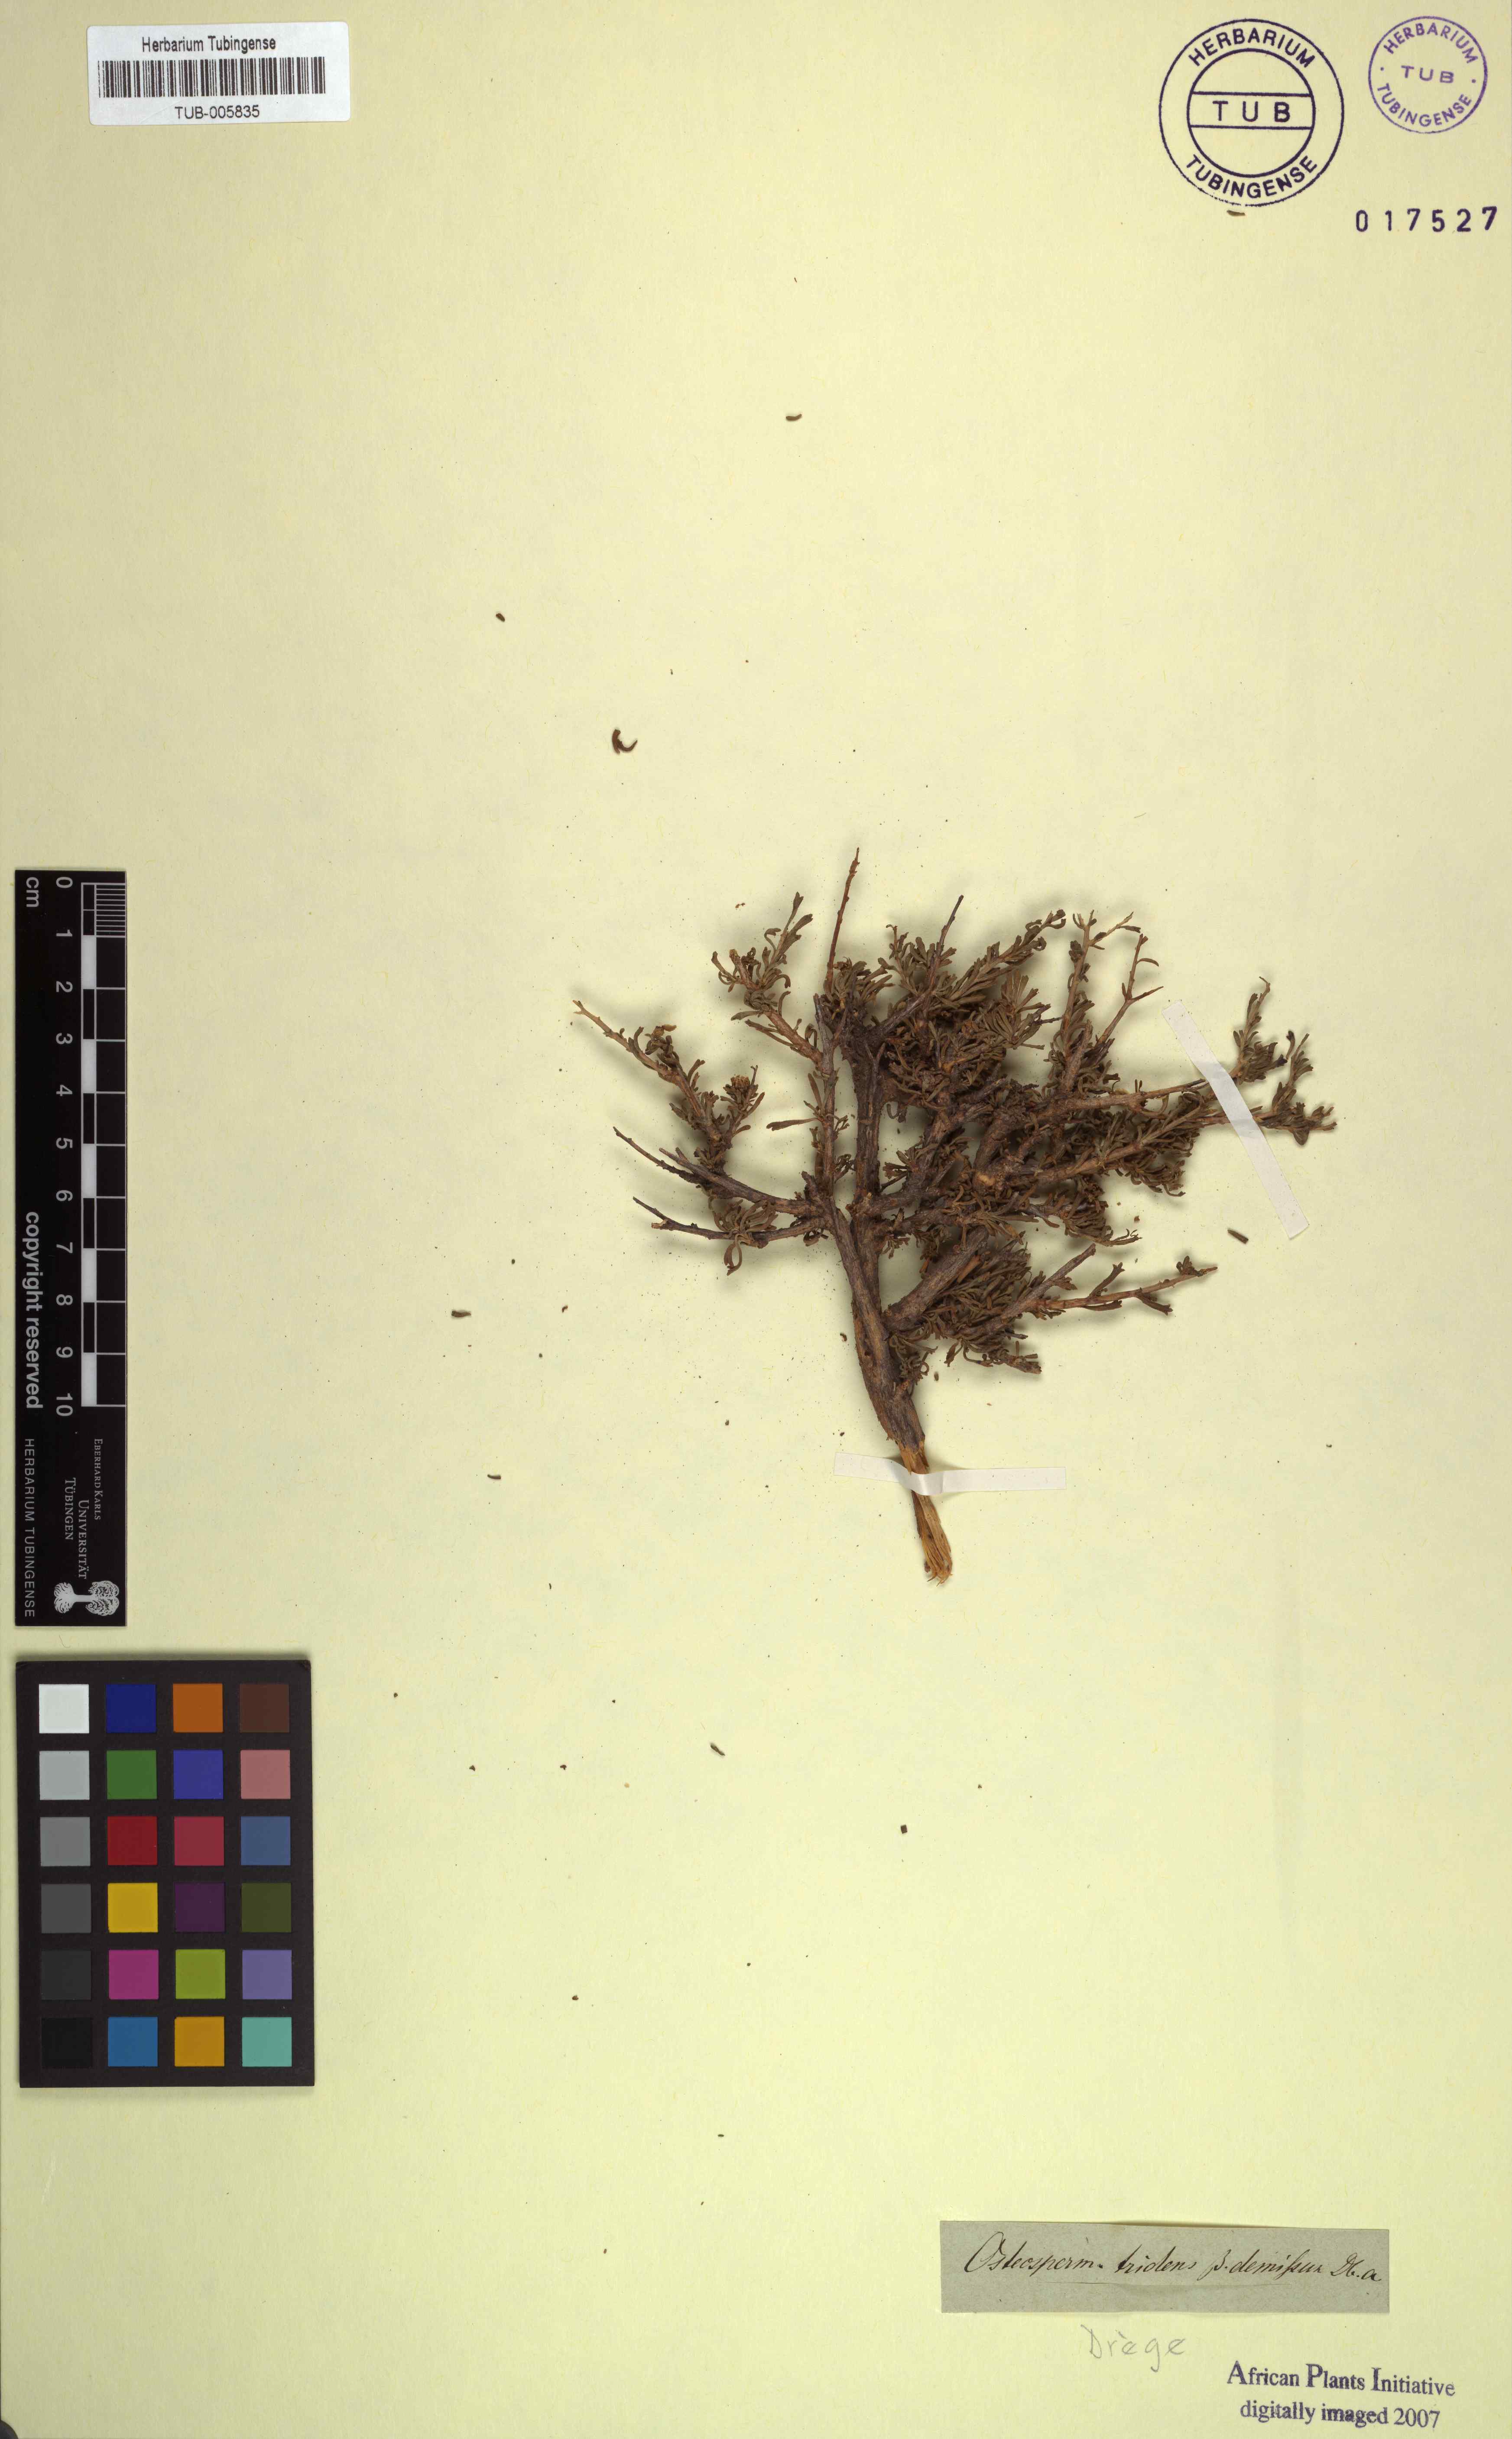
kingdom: Plantae
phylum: Tracheophyta
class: Magnoliopsida
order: Asterales
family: Asteraceae
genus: Osteospermum
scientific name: Osteospermum spinescens
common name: Sunflower
